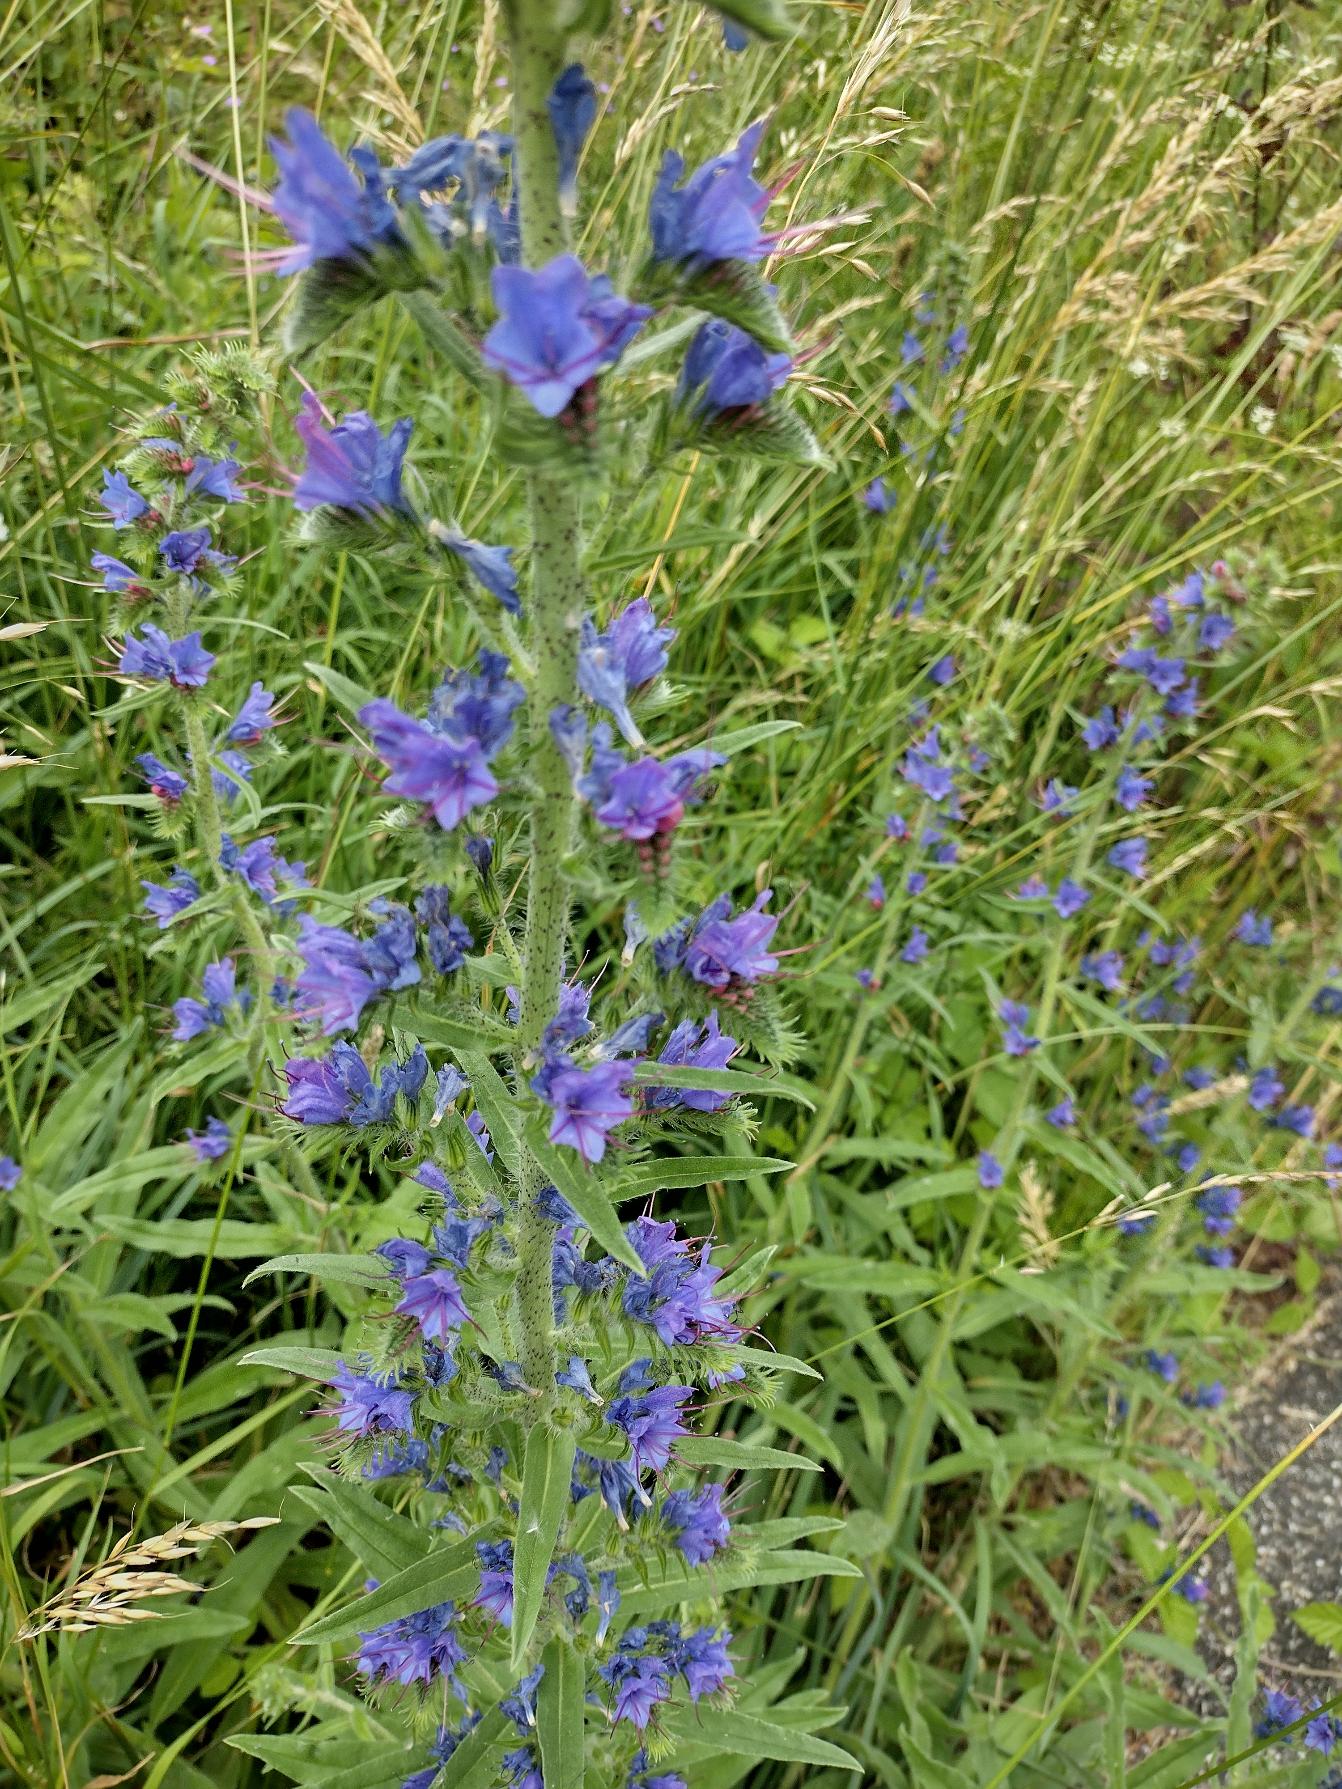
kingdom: Plantae
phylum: Tracheophyta
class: Magnoliopsida
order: Boraginales
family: Boraginaceae
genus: Echium
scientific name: Echium vulgare
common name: Slangehoved
